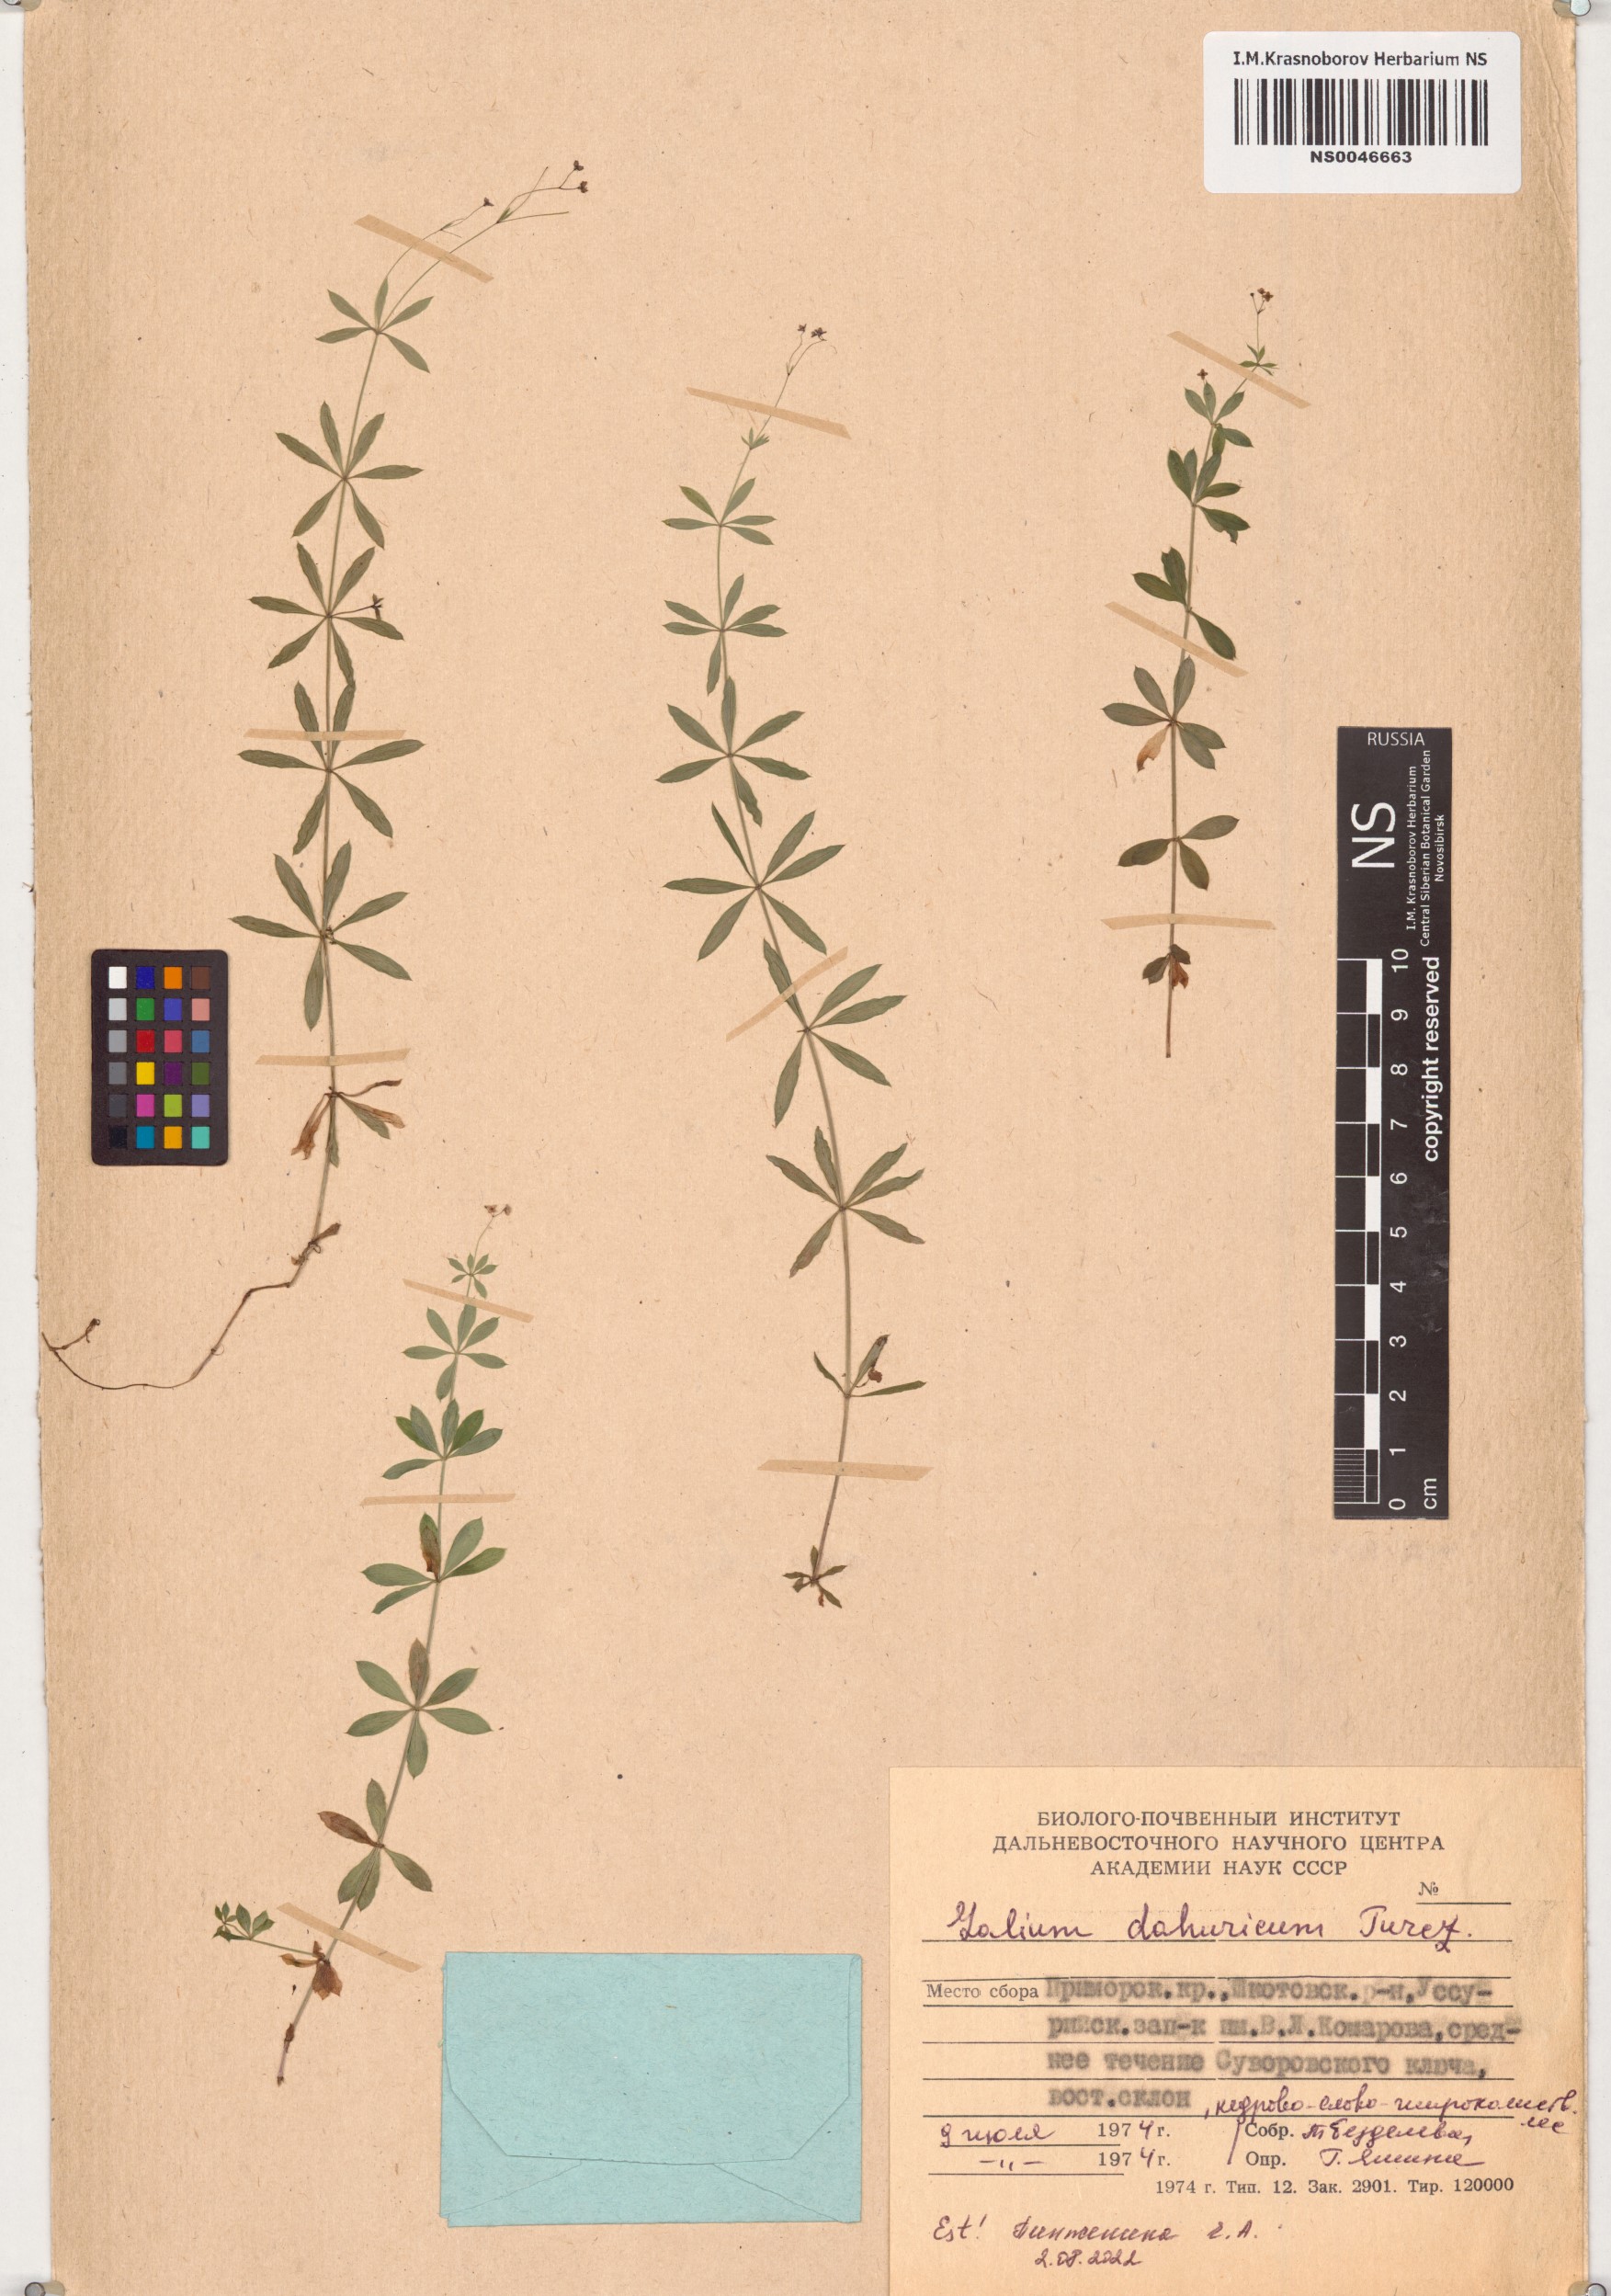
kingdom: Plantae
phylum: Tracheophyta
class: Magnoliopsida
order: Gentianales
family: Rubiaceae
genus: Galium
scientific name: Galium dahuricum
